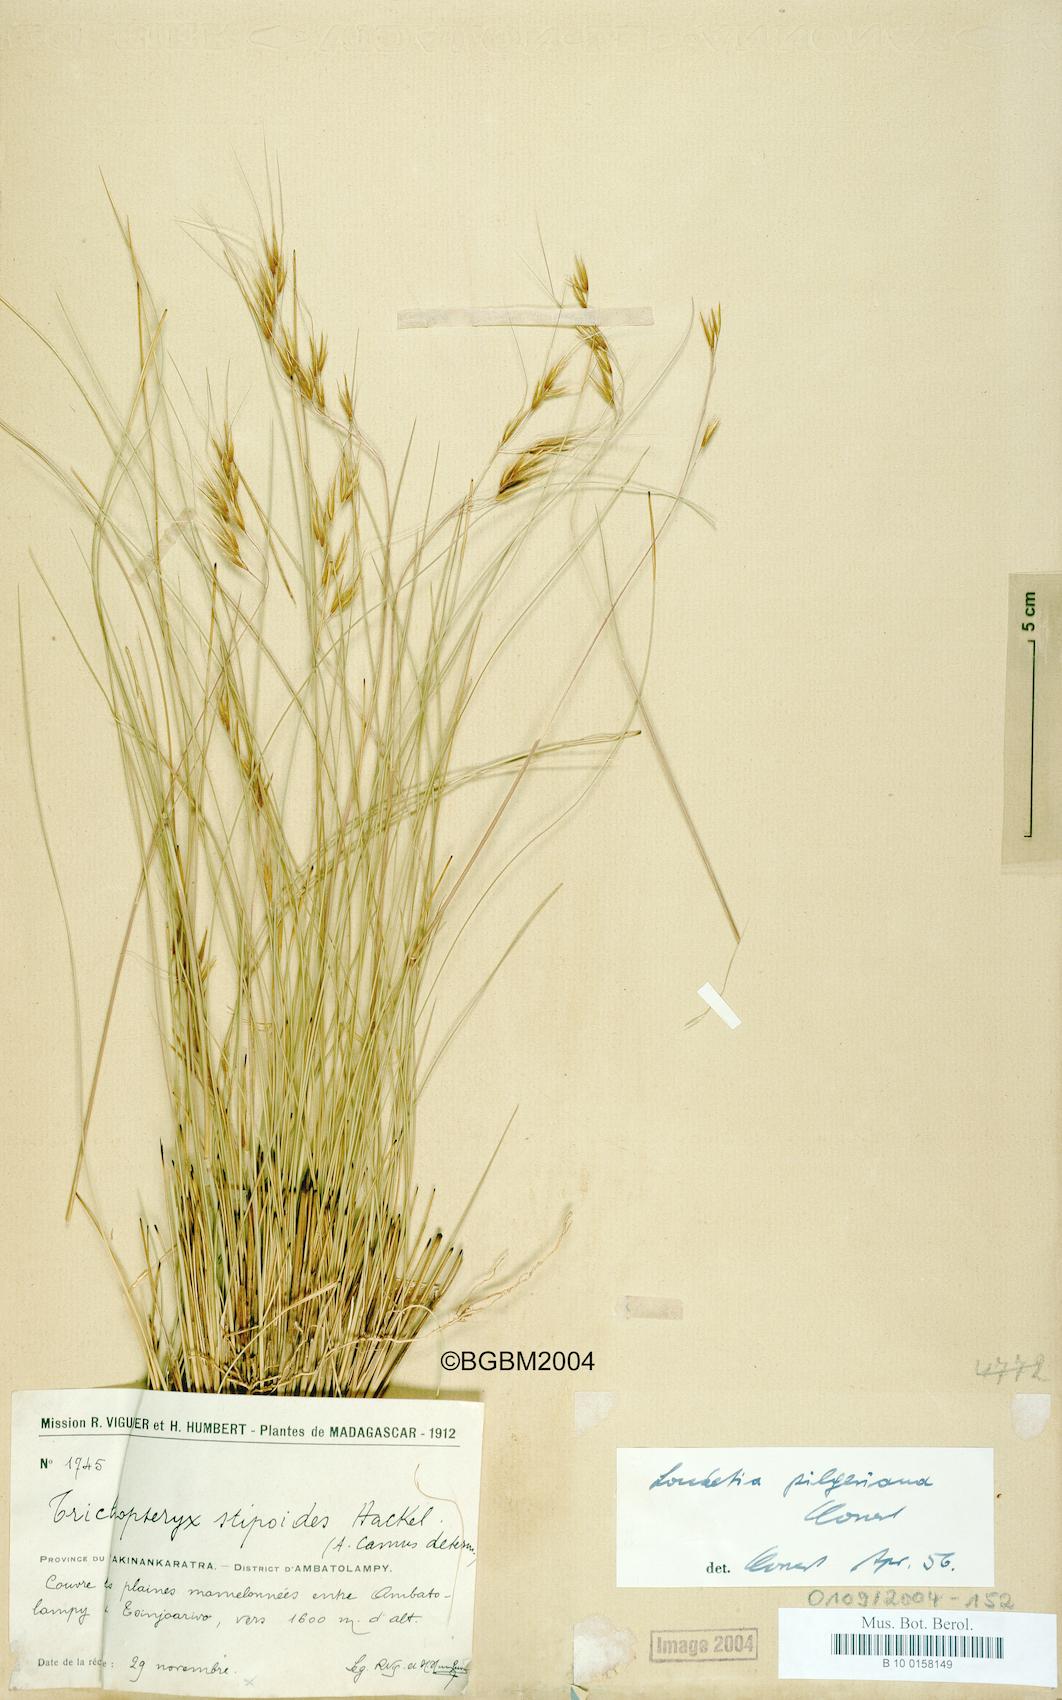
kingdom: Plantae
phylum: Tracheophyta
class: Liliopsida
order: Poales
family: Poaceae
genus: Loudetia
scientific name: Loudetia simplex
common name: Common russet grass
